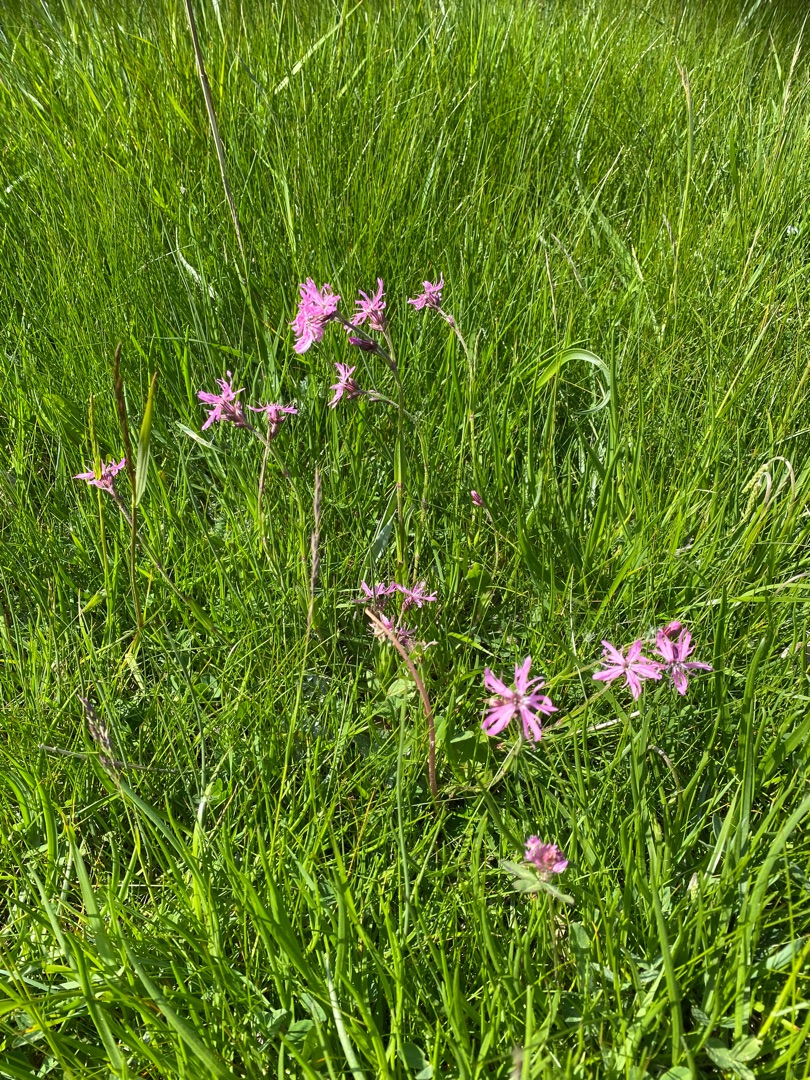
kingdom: Plantae
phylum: Tracheophyta
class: Magnoliopsida
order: Caryophyllales
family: Caryophyllaceae
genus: Silene
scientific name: Silene flos-cuculi
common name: Trævlekrone
